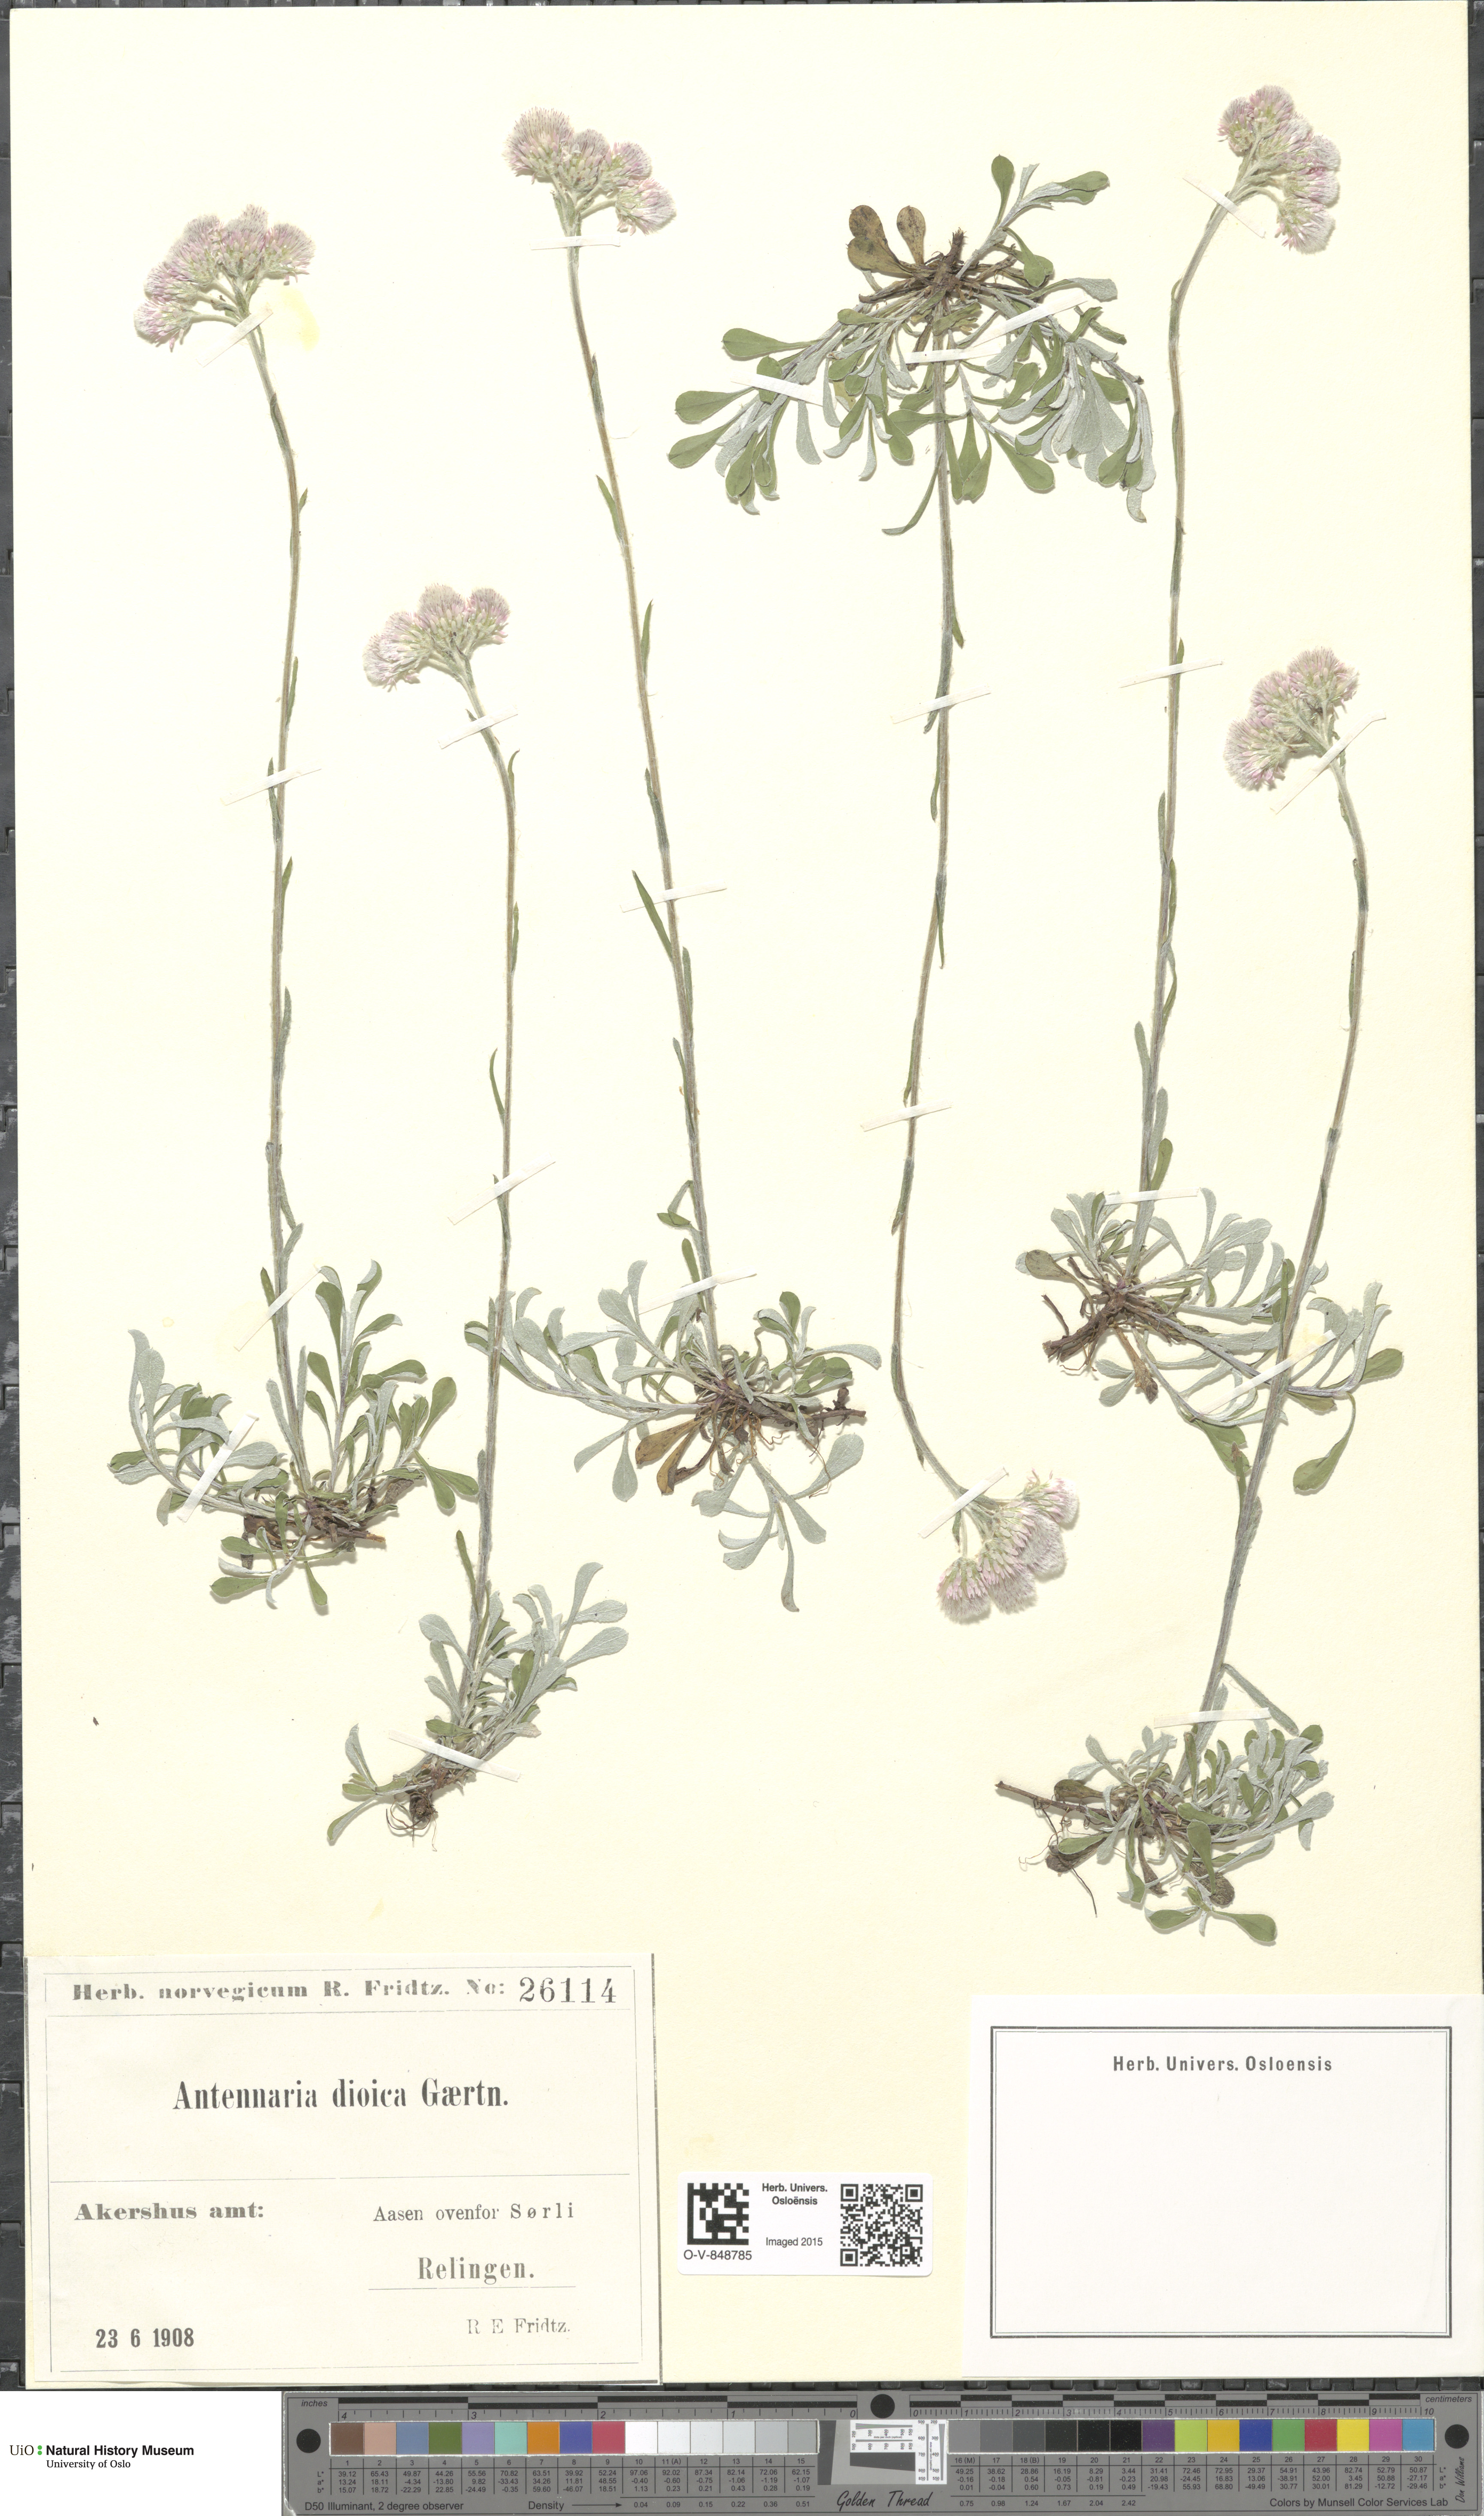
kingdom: Plantae
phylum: Tracheophyta
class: Magnoliopsida
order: Asterales
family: Asteraceae
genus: Antennaria
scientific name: Antennaria dioica
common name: Mountain everlasting
